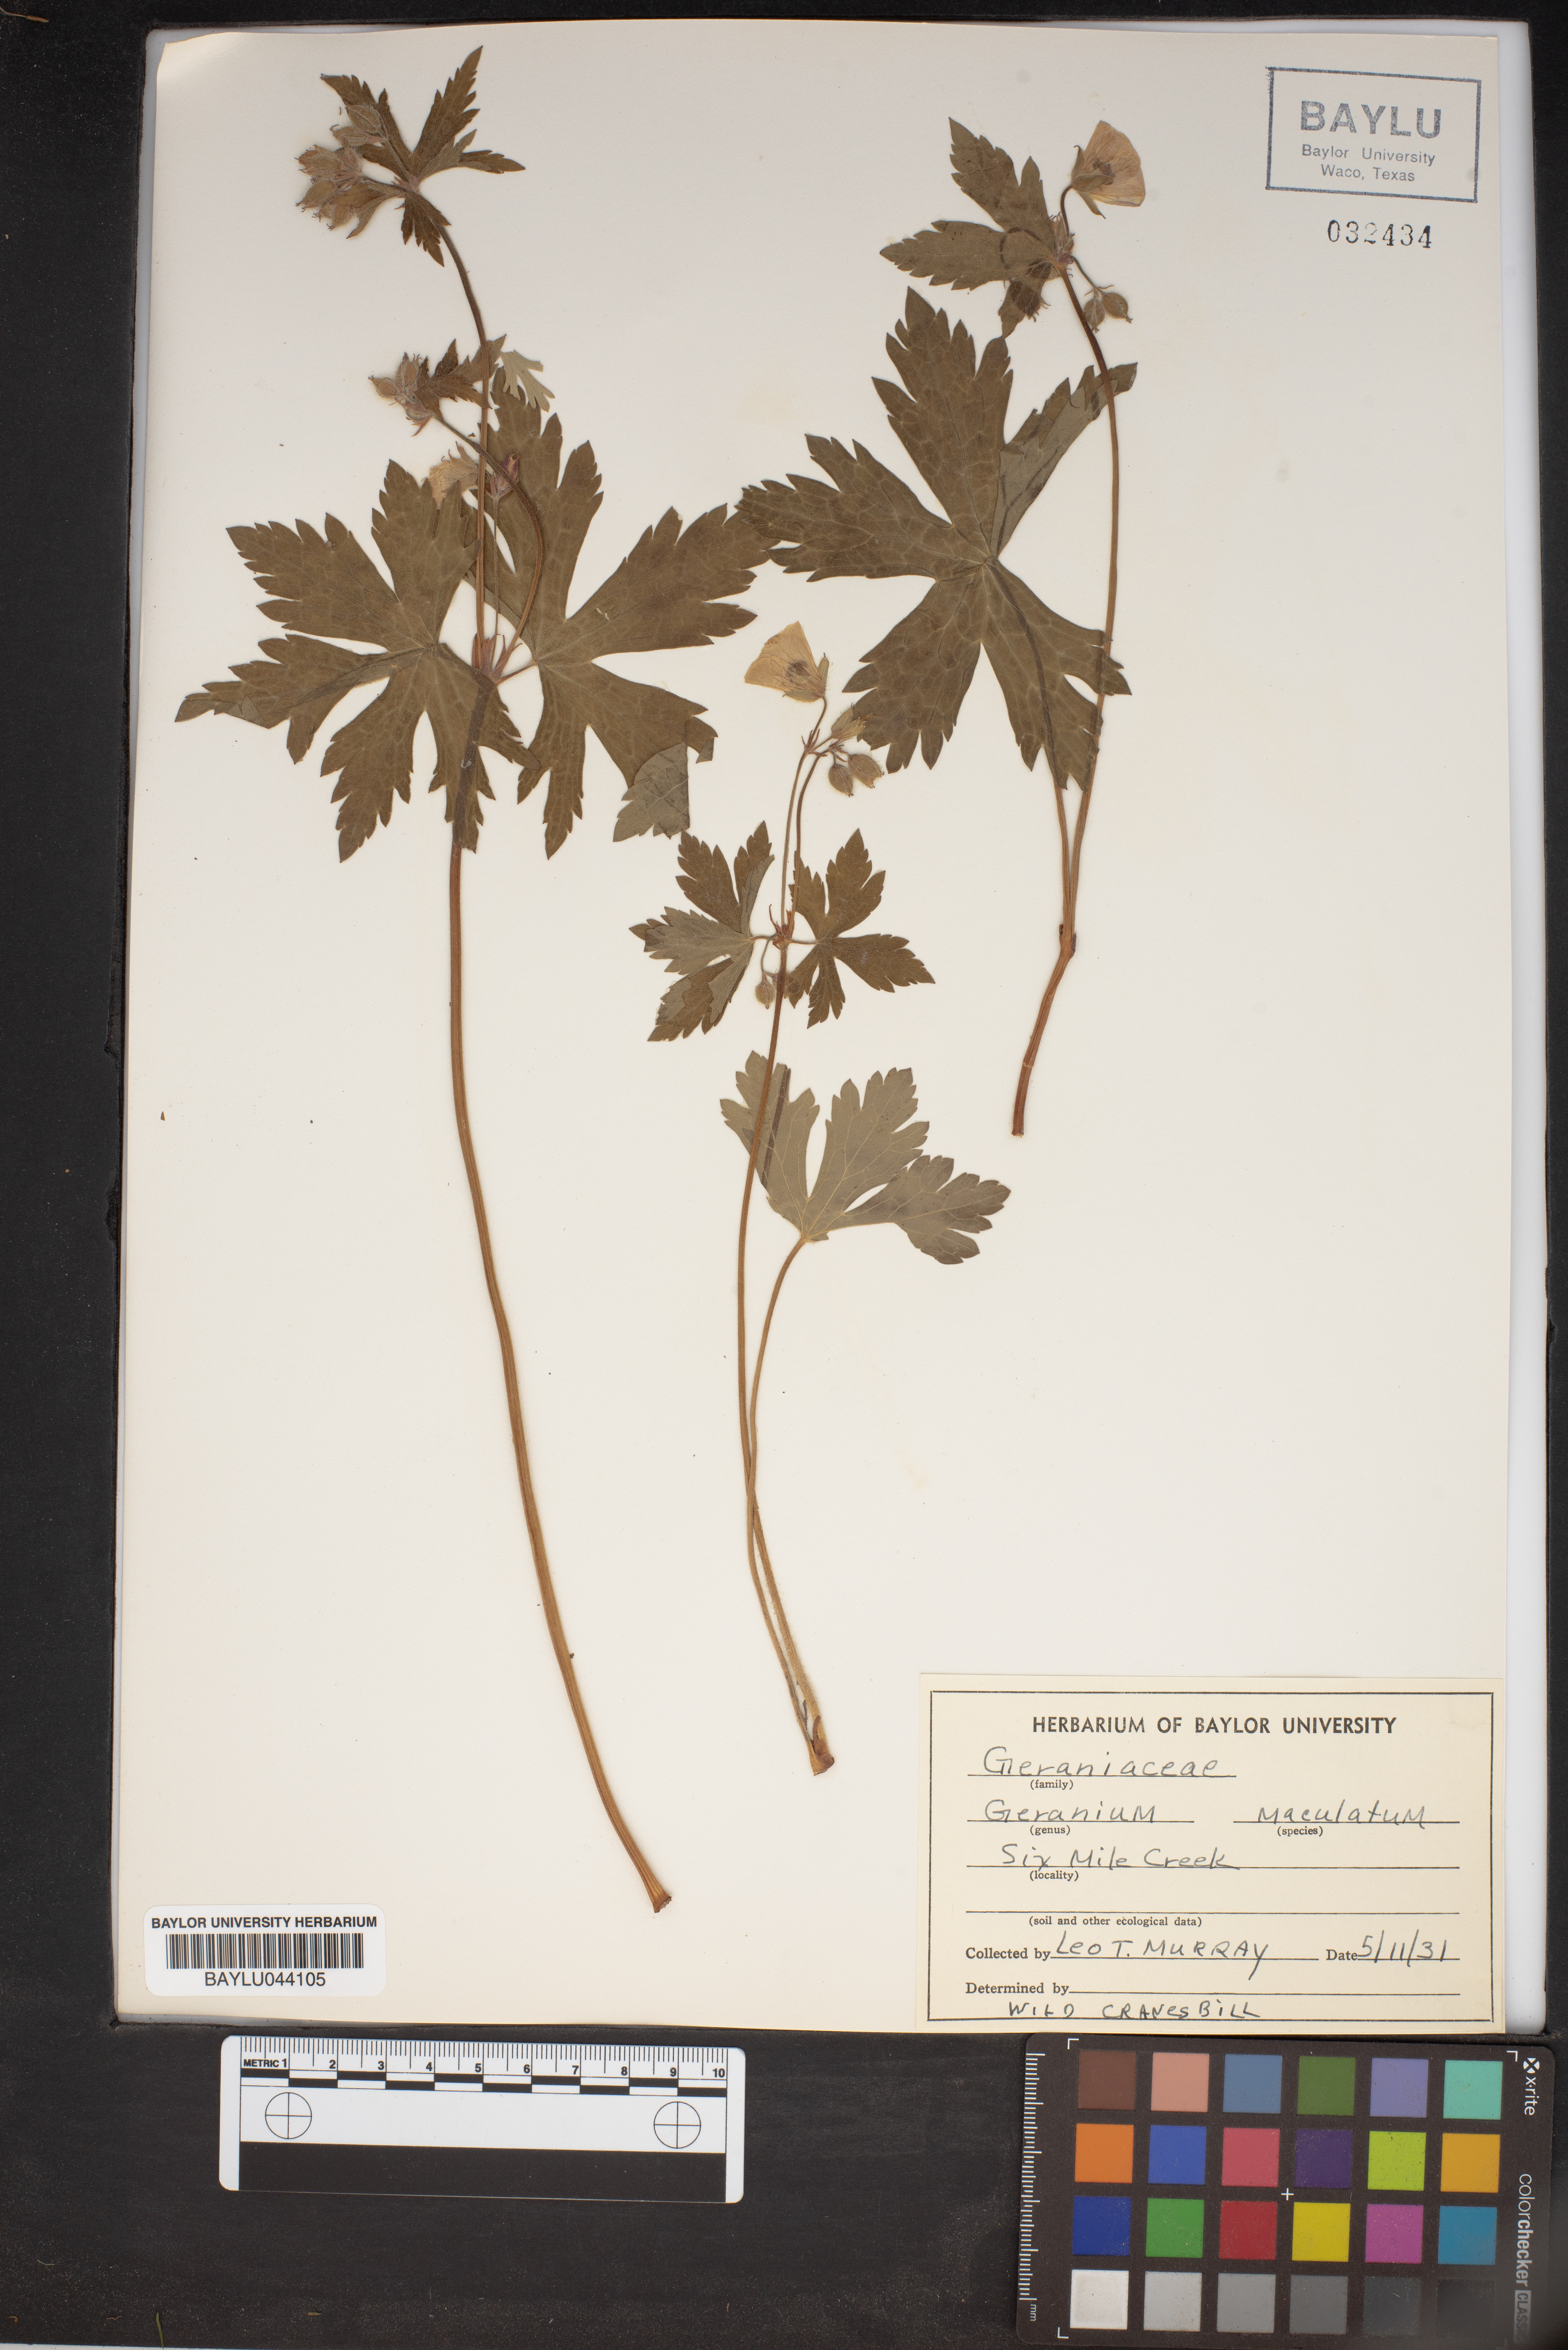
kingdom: Plantae
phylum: Tracheophyta
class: Magnoliopsida
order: Geraniales
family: Geraniaceae
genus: Geranium
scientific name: Geranium maculatum
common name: Spotted geranium
